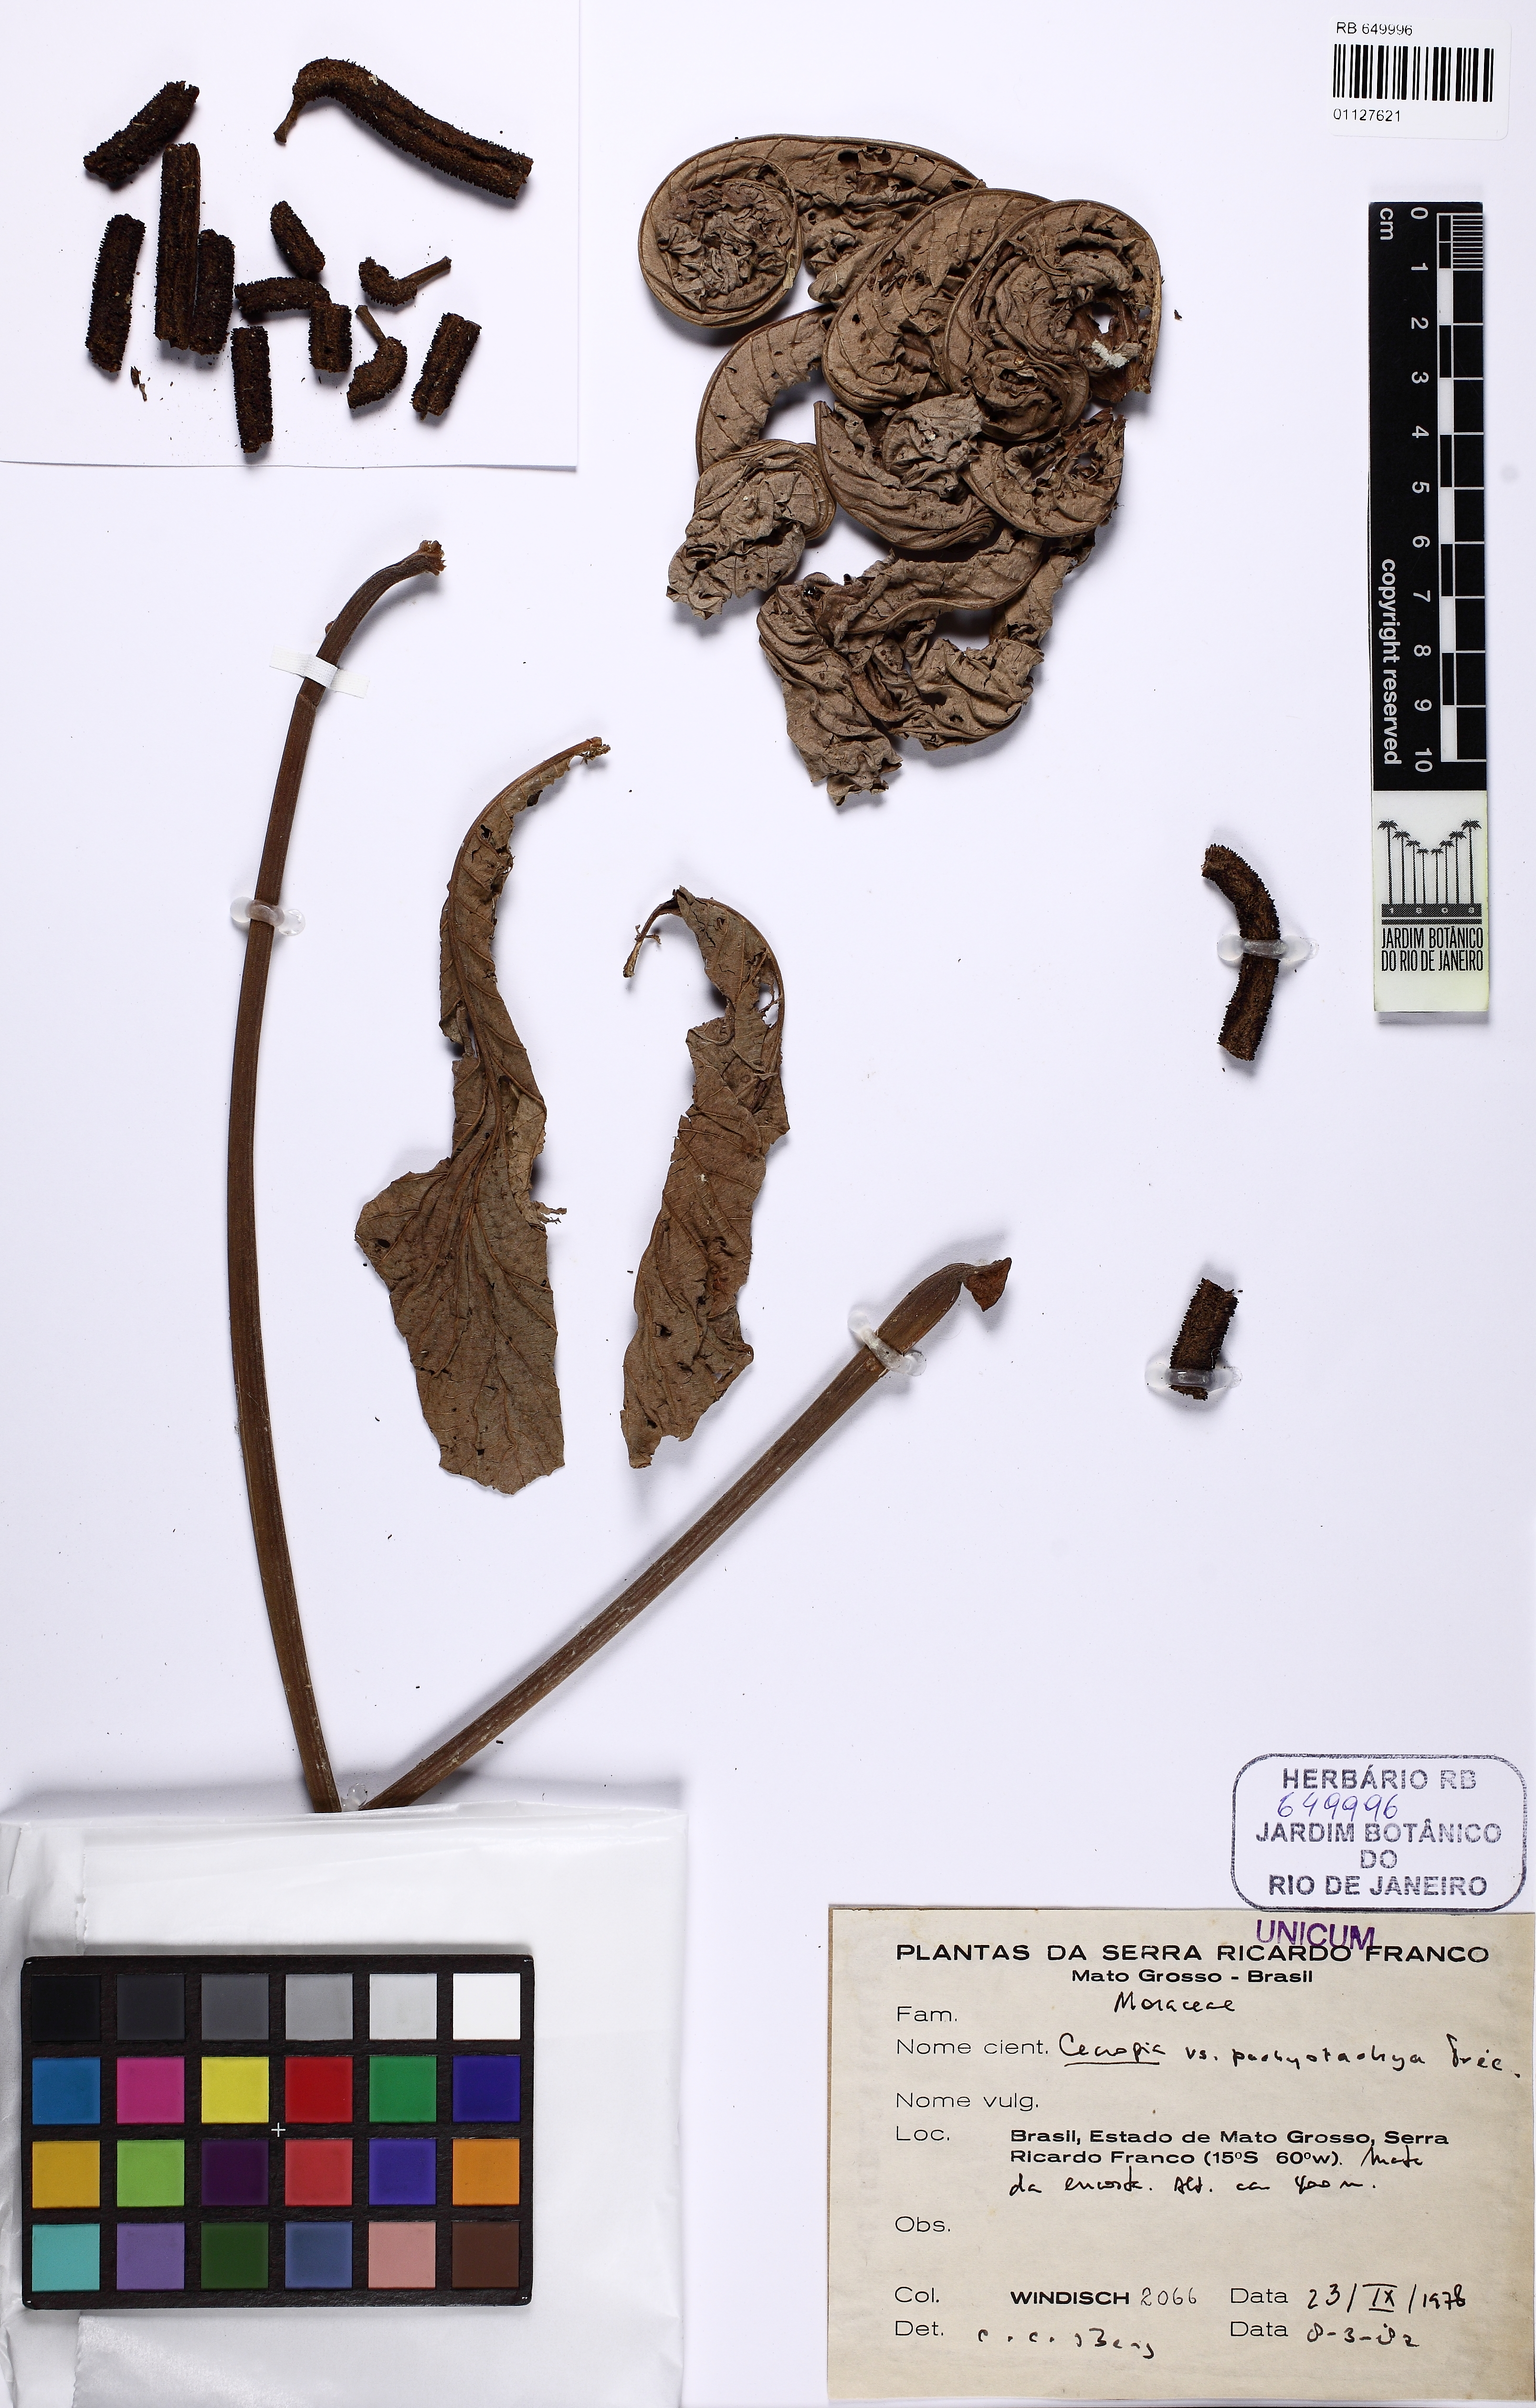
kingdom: Plantae
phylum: Tracheophyta
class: Magnoliopsida
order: Rosales
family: Urticaceae
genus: Cecropia
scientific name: Cecropia pachystachya
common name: Ambay pumpwood
